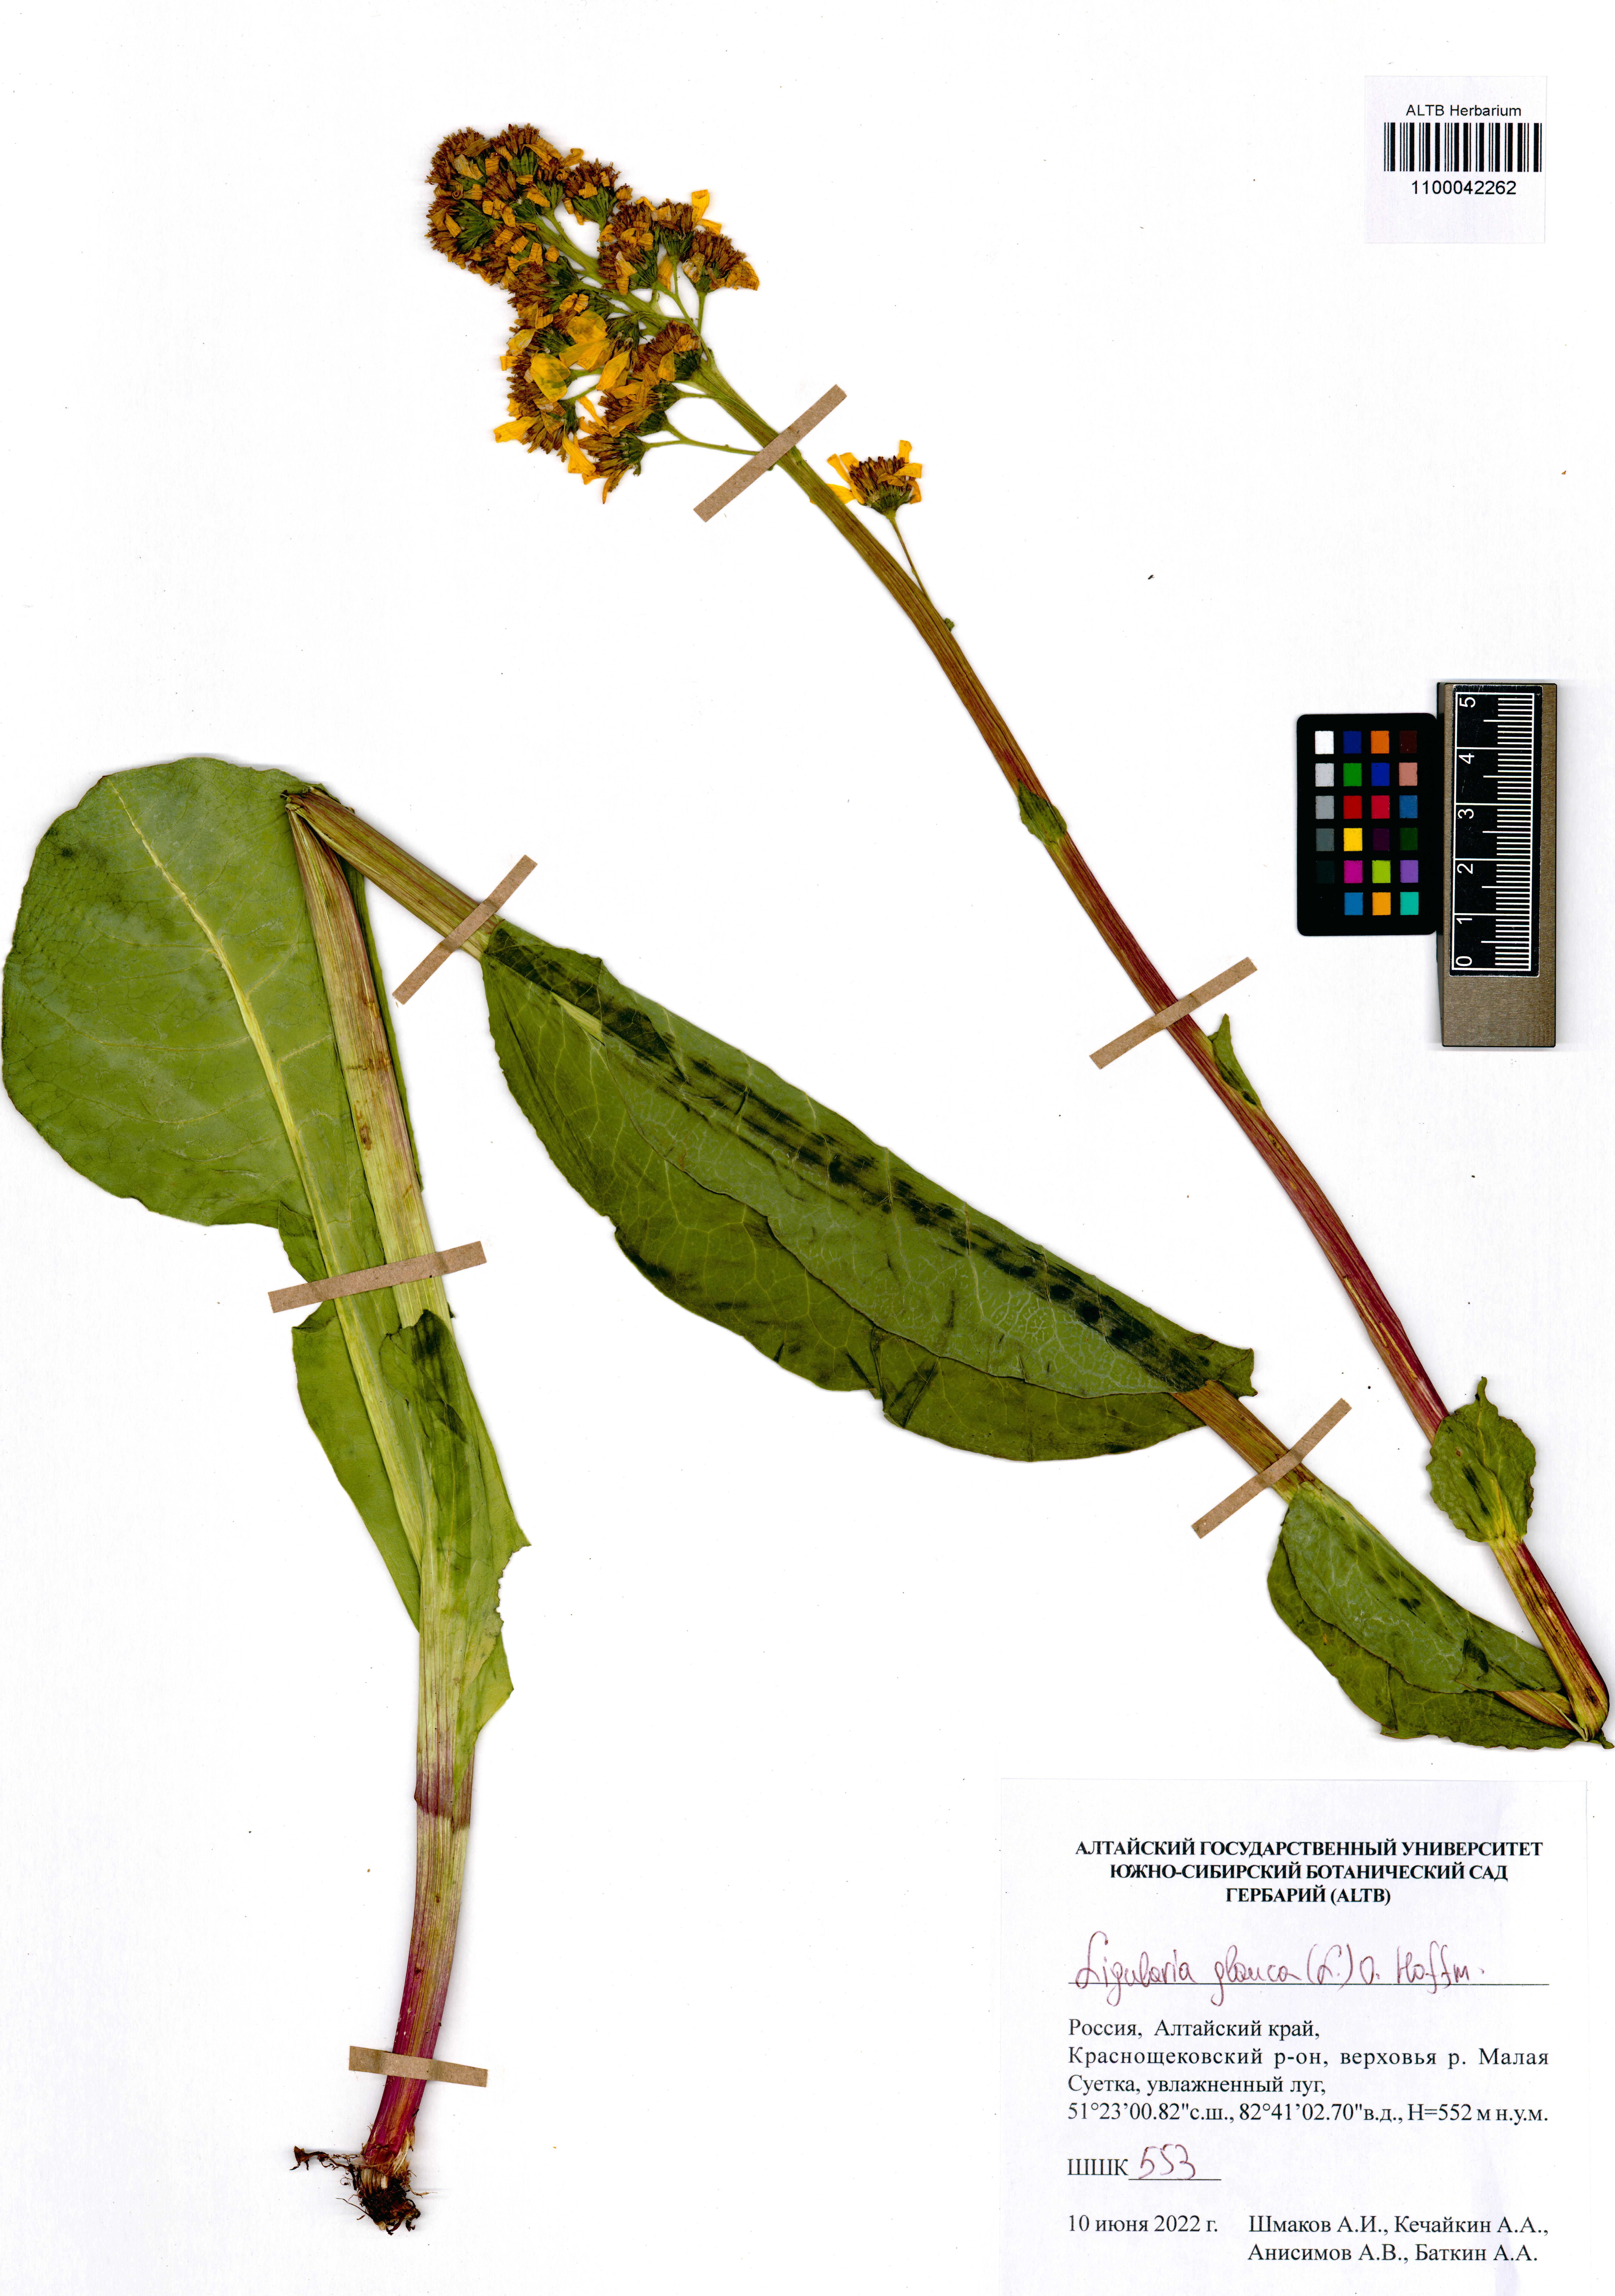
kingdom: Plantae
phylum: Tracheophyta
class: Magnoliopsida
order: Asterales
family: Asteraceae
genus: Ligularia
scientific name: Ligularia glauca
